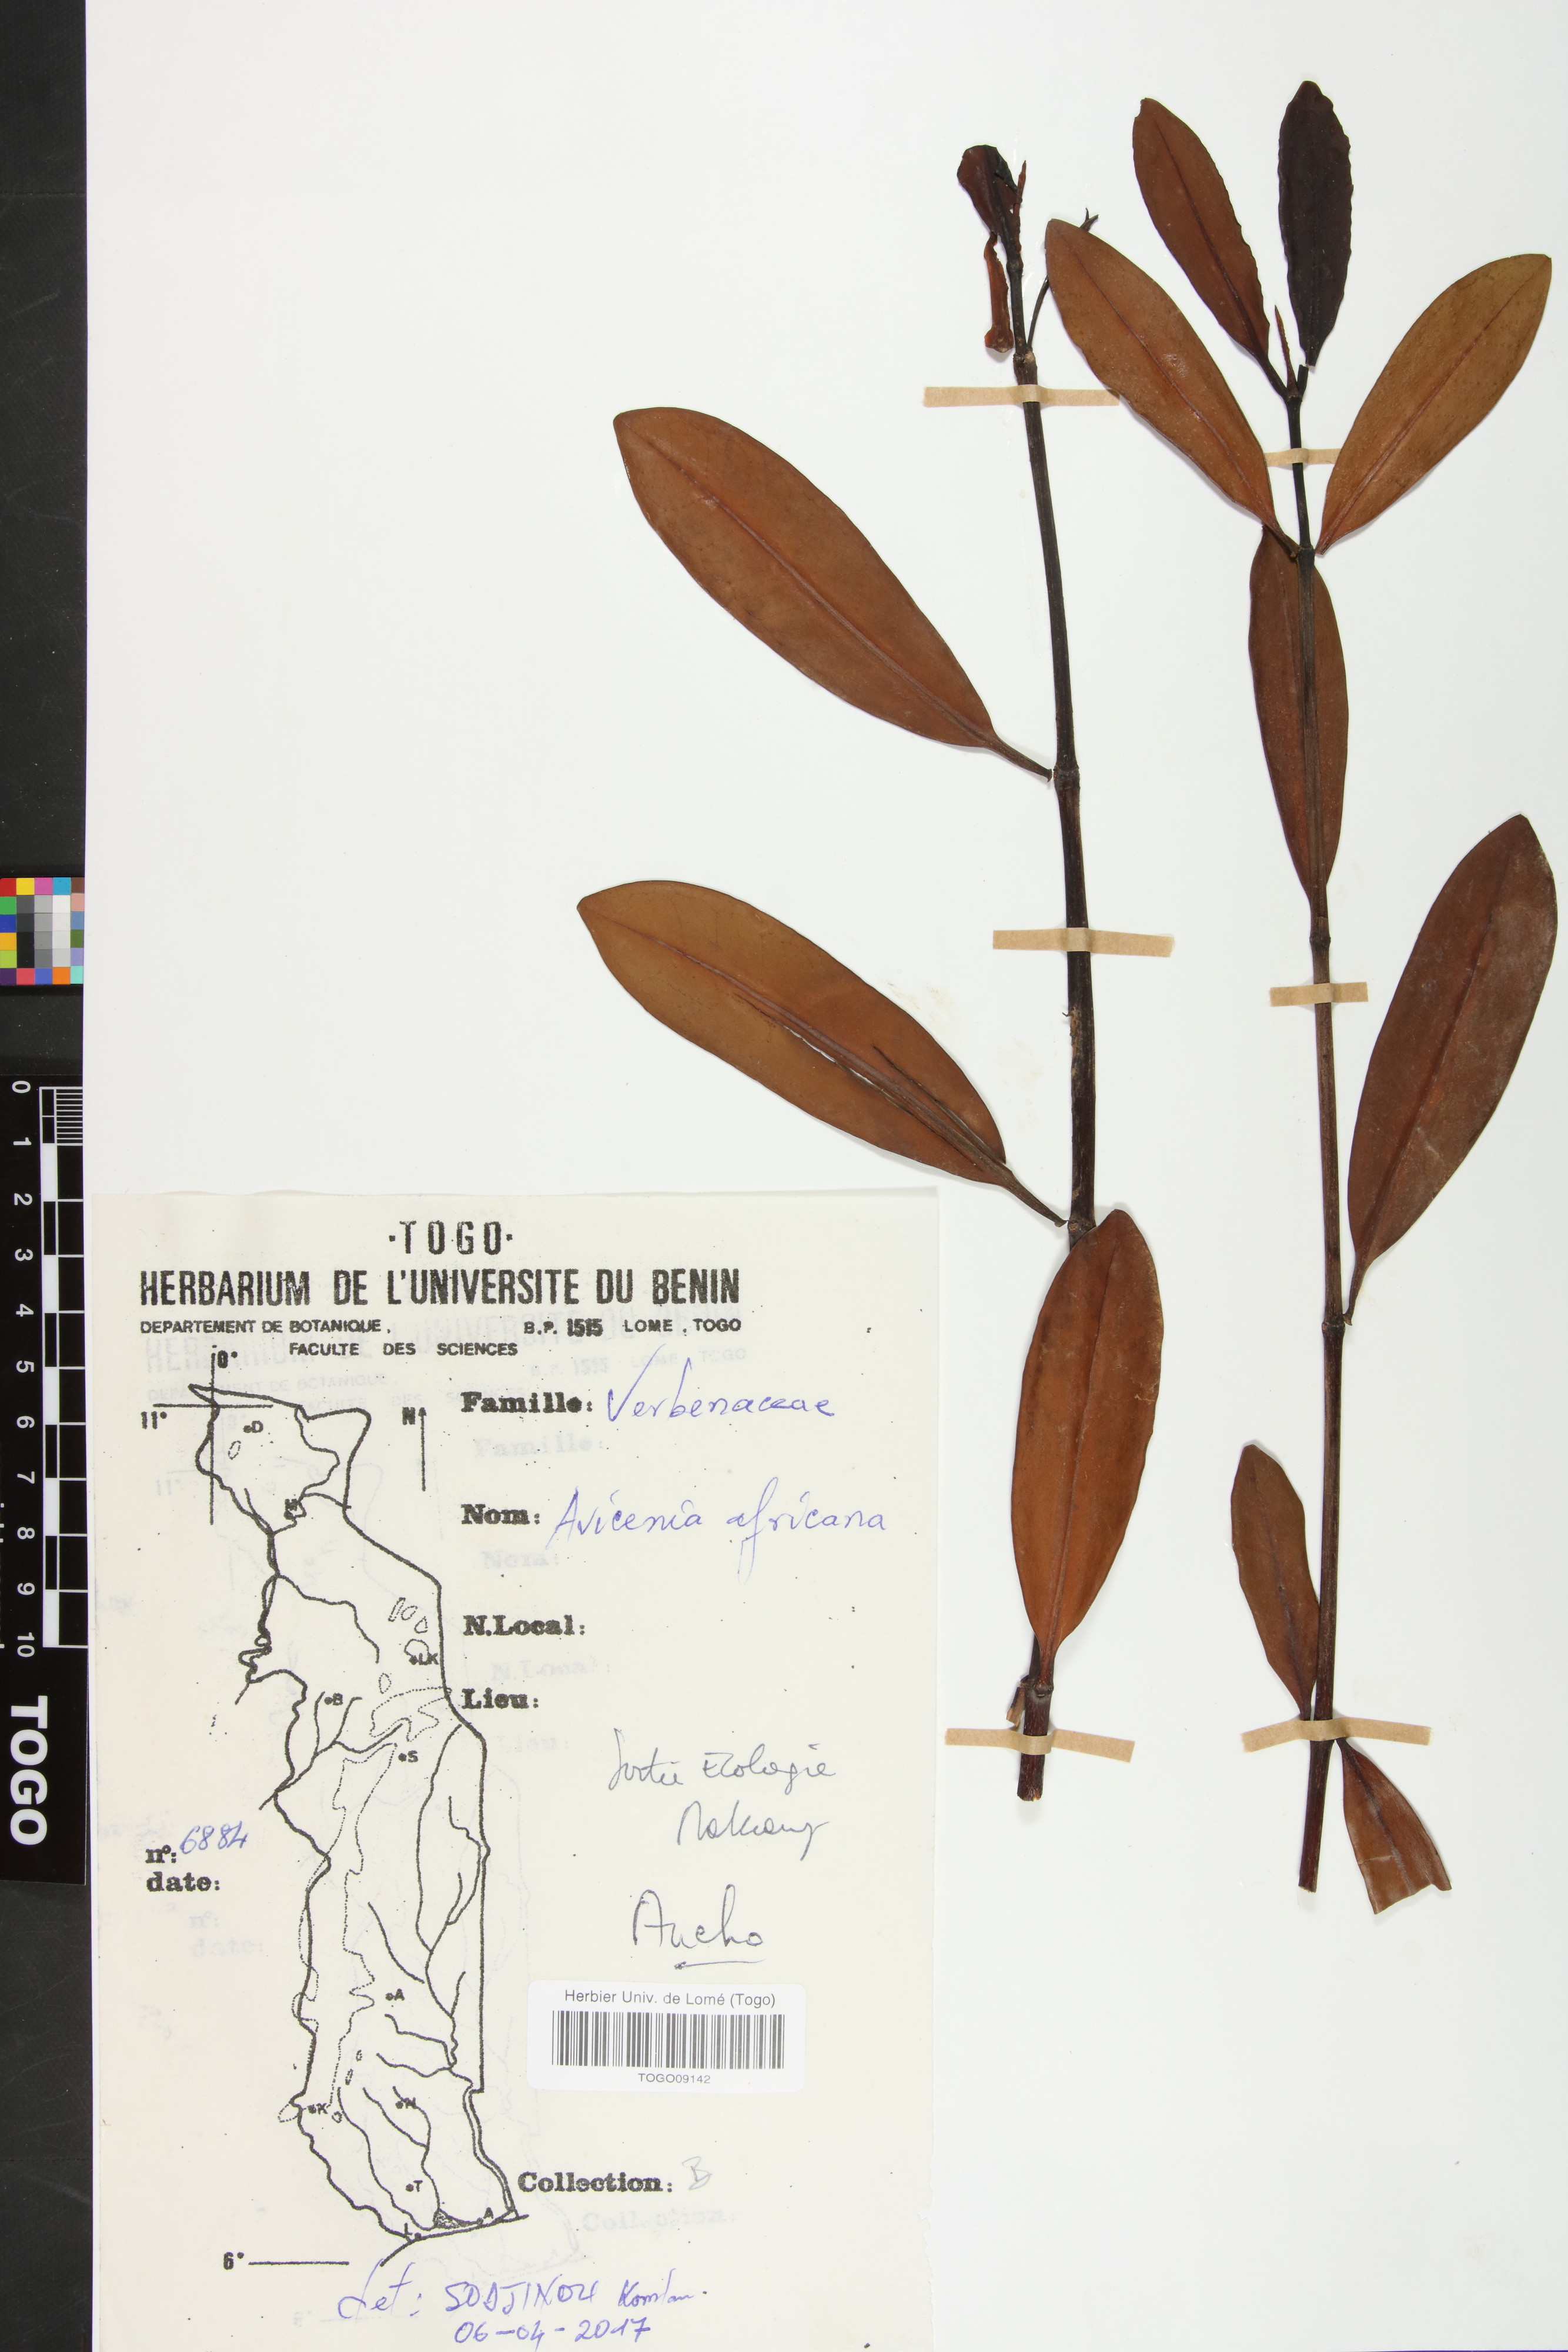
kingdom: Plantae
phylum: Tracheophyta
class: Magnoliopsida
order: Lamiales
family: Acanthaceae
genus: Avicennia
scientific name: Avicennia germinans
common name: Black mangrove
